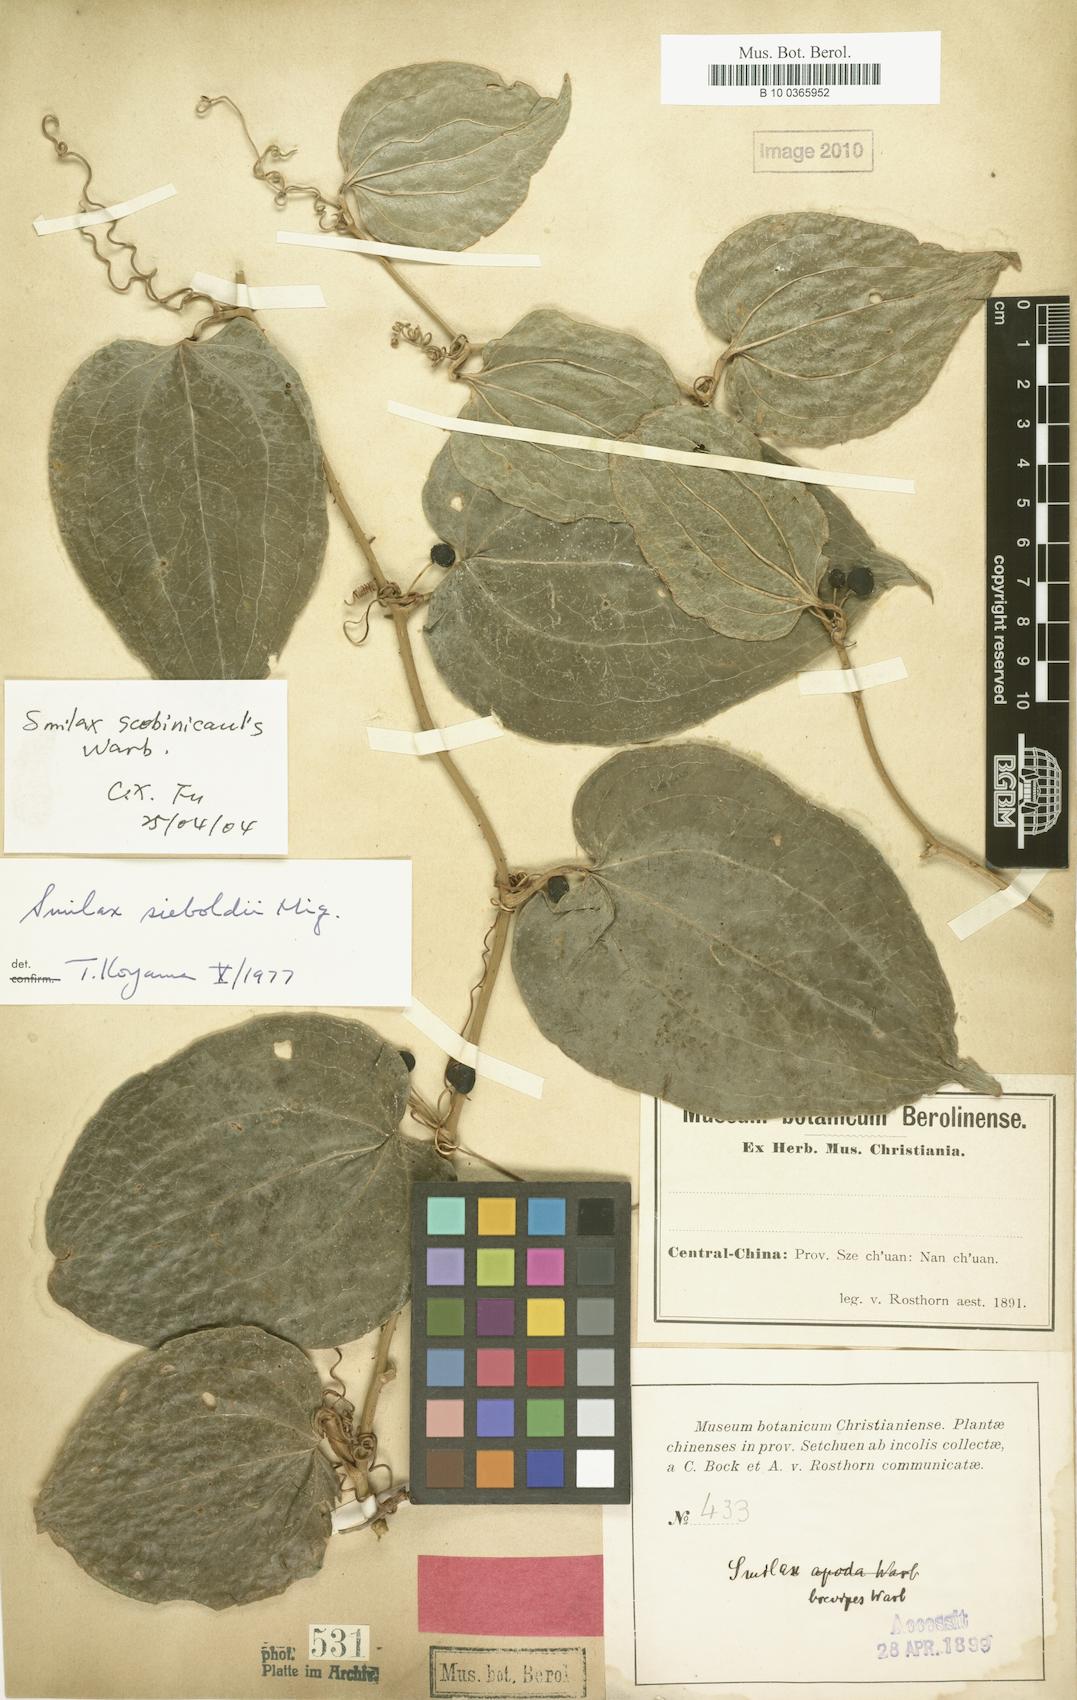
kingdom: Plantae
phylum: Tracheophyta
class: Liliopsida
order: Liliales
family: Smilacaceae
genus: Smilax
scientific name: Smilax scobinicaulis
